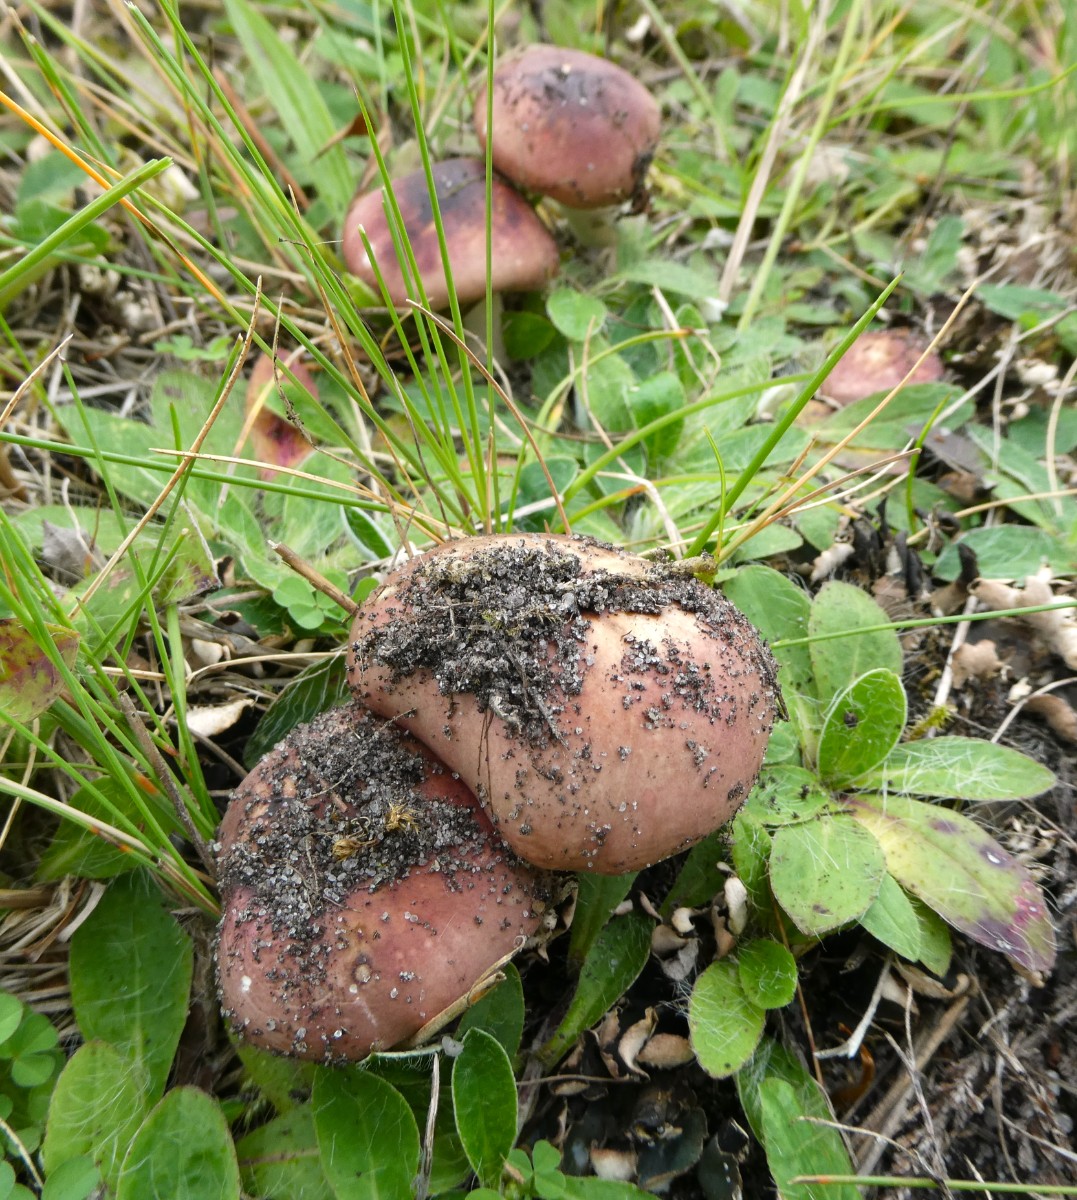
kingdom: Fungi
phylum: Basidiomycota
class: Agaricomycetes
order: Russulales
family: Russulaceae
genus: Russula
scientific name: Russula cessans
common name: fyrre-skørhat
